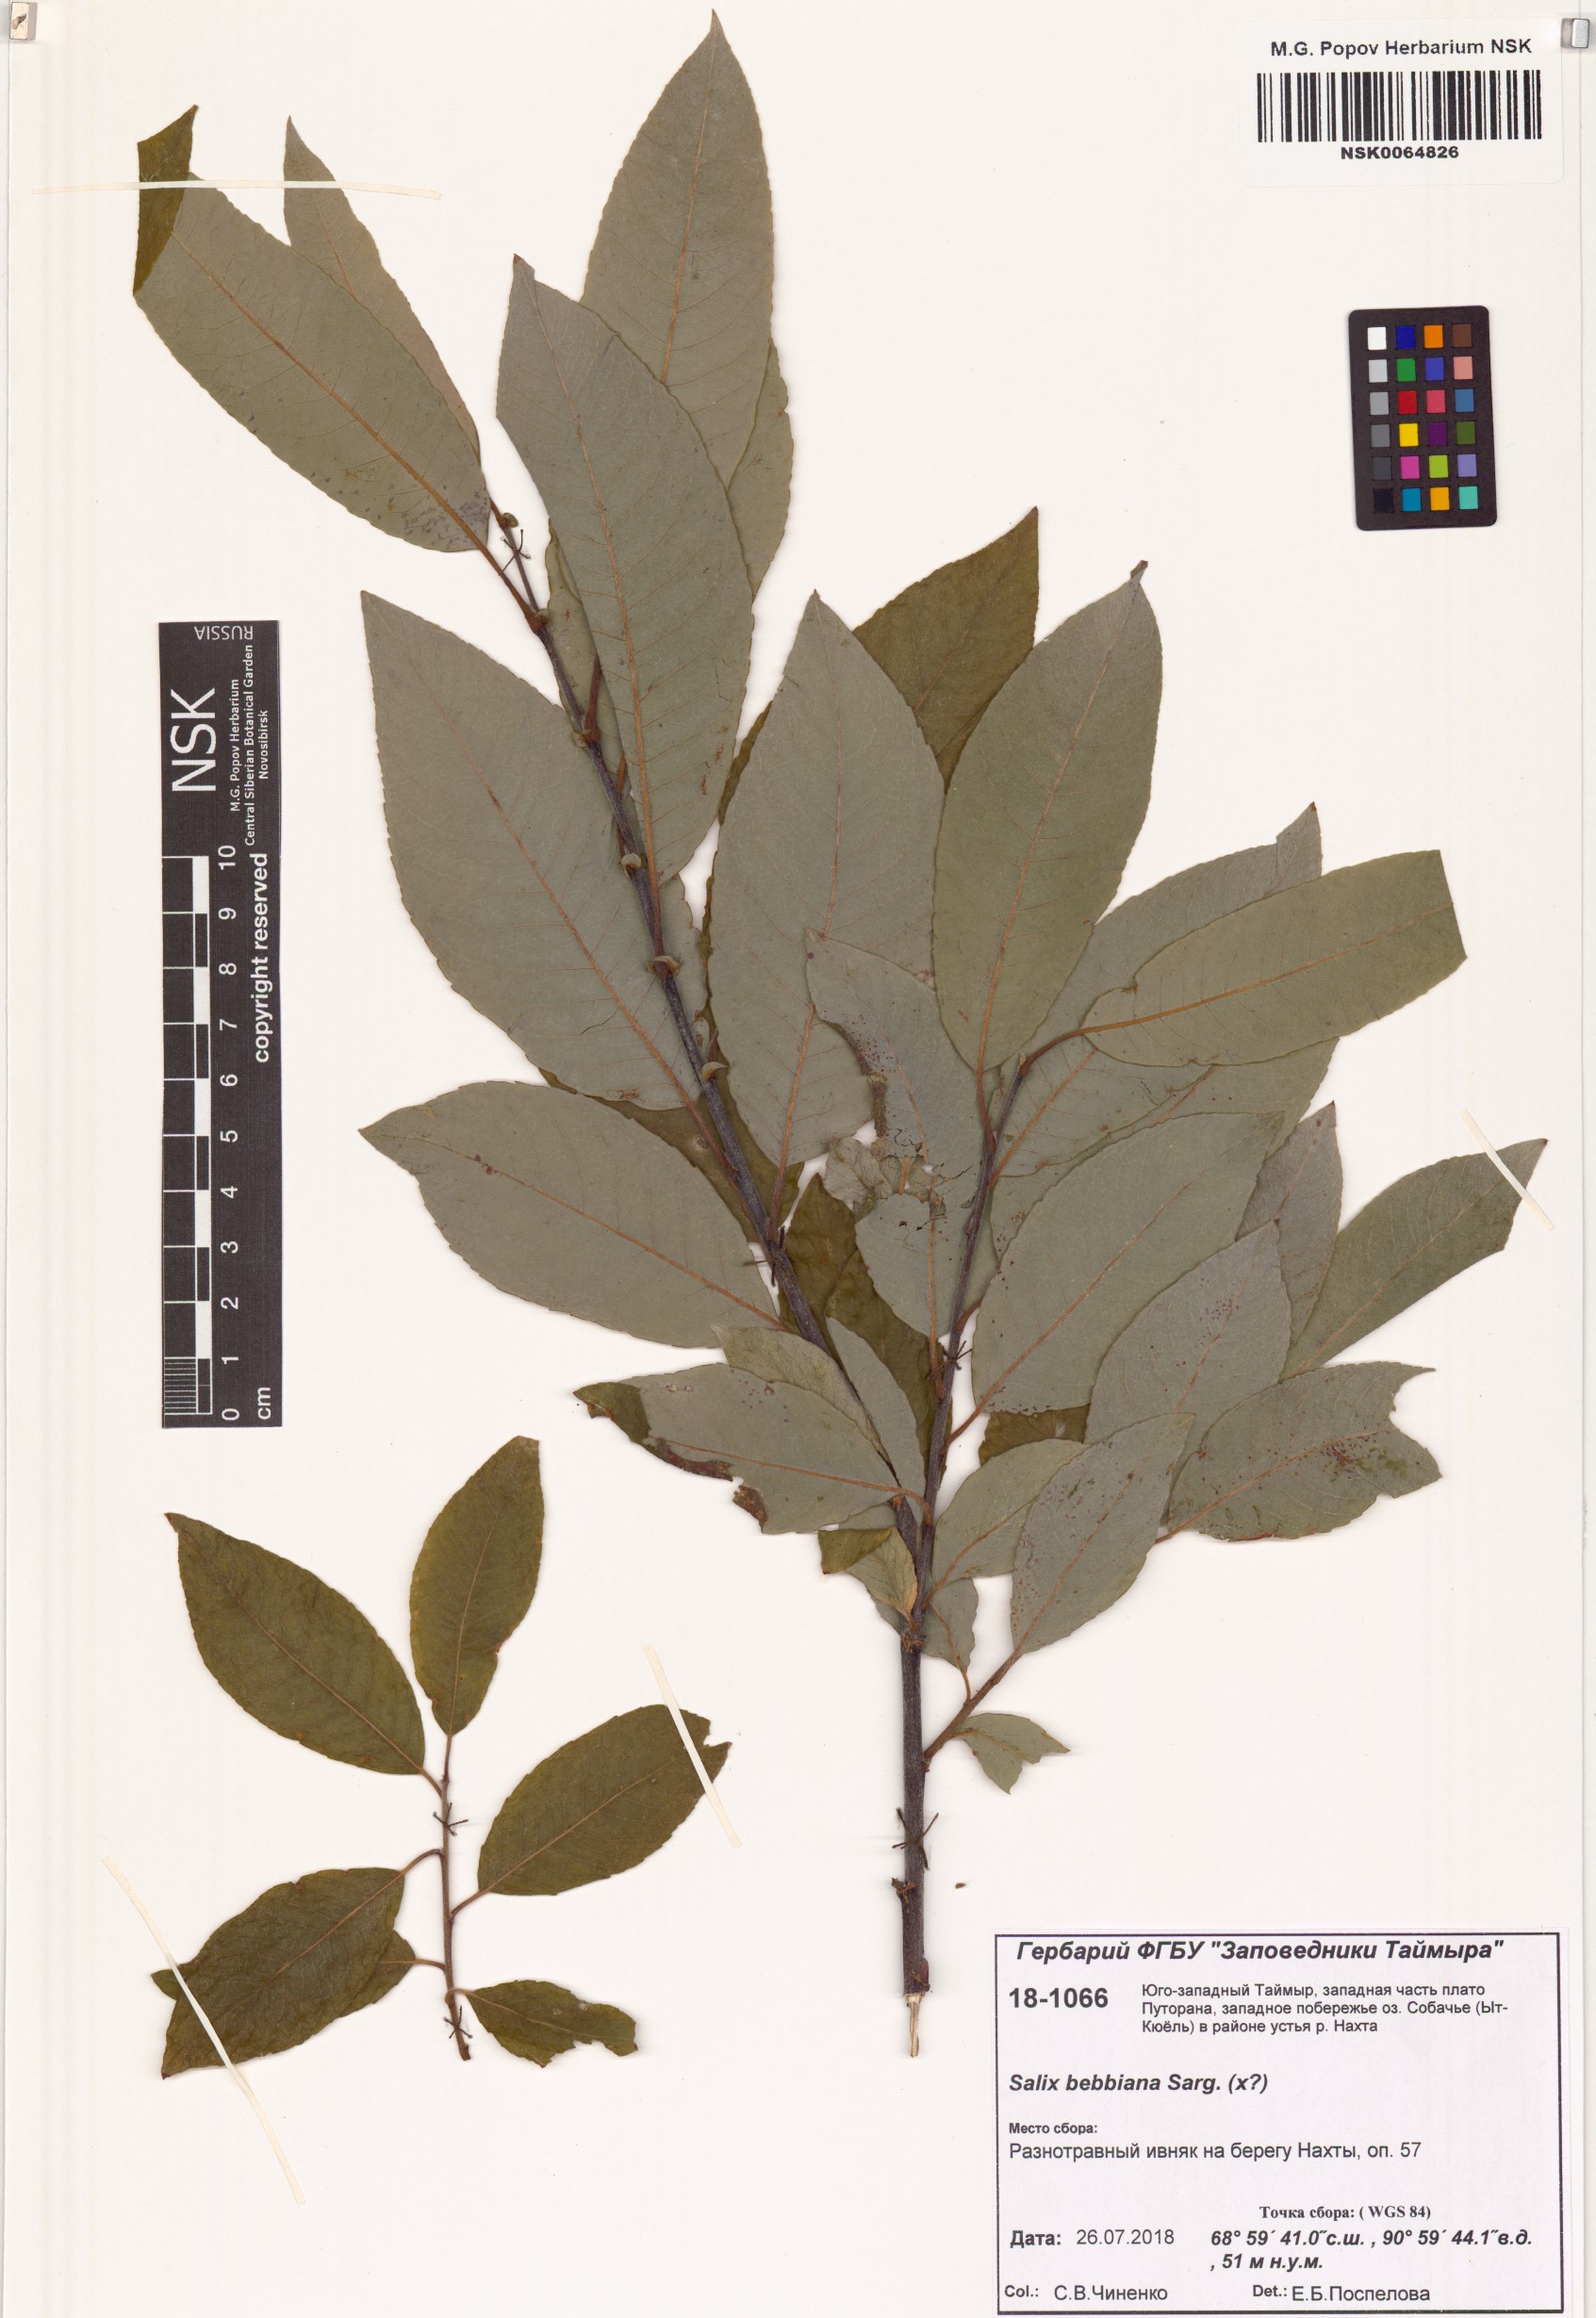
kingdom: Plantae
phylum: Tracheophyta
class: Magnoliopsida
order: Malpighiales
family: Salicaceae
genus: Salix
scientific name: Salix bebbiana
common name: Bebb's willow
